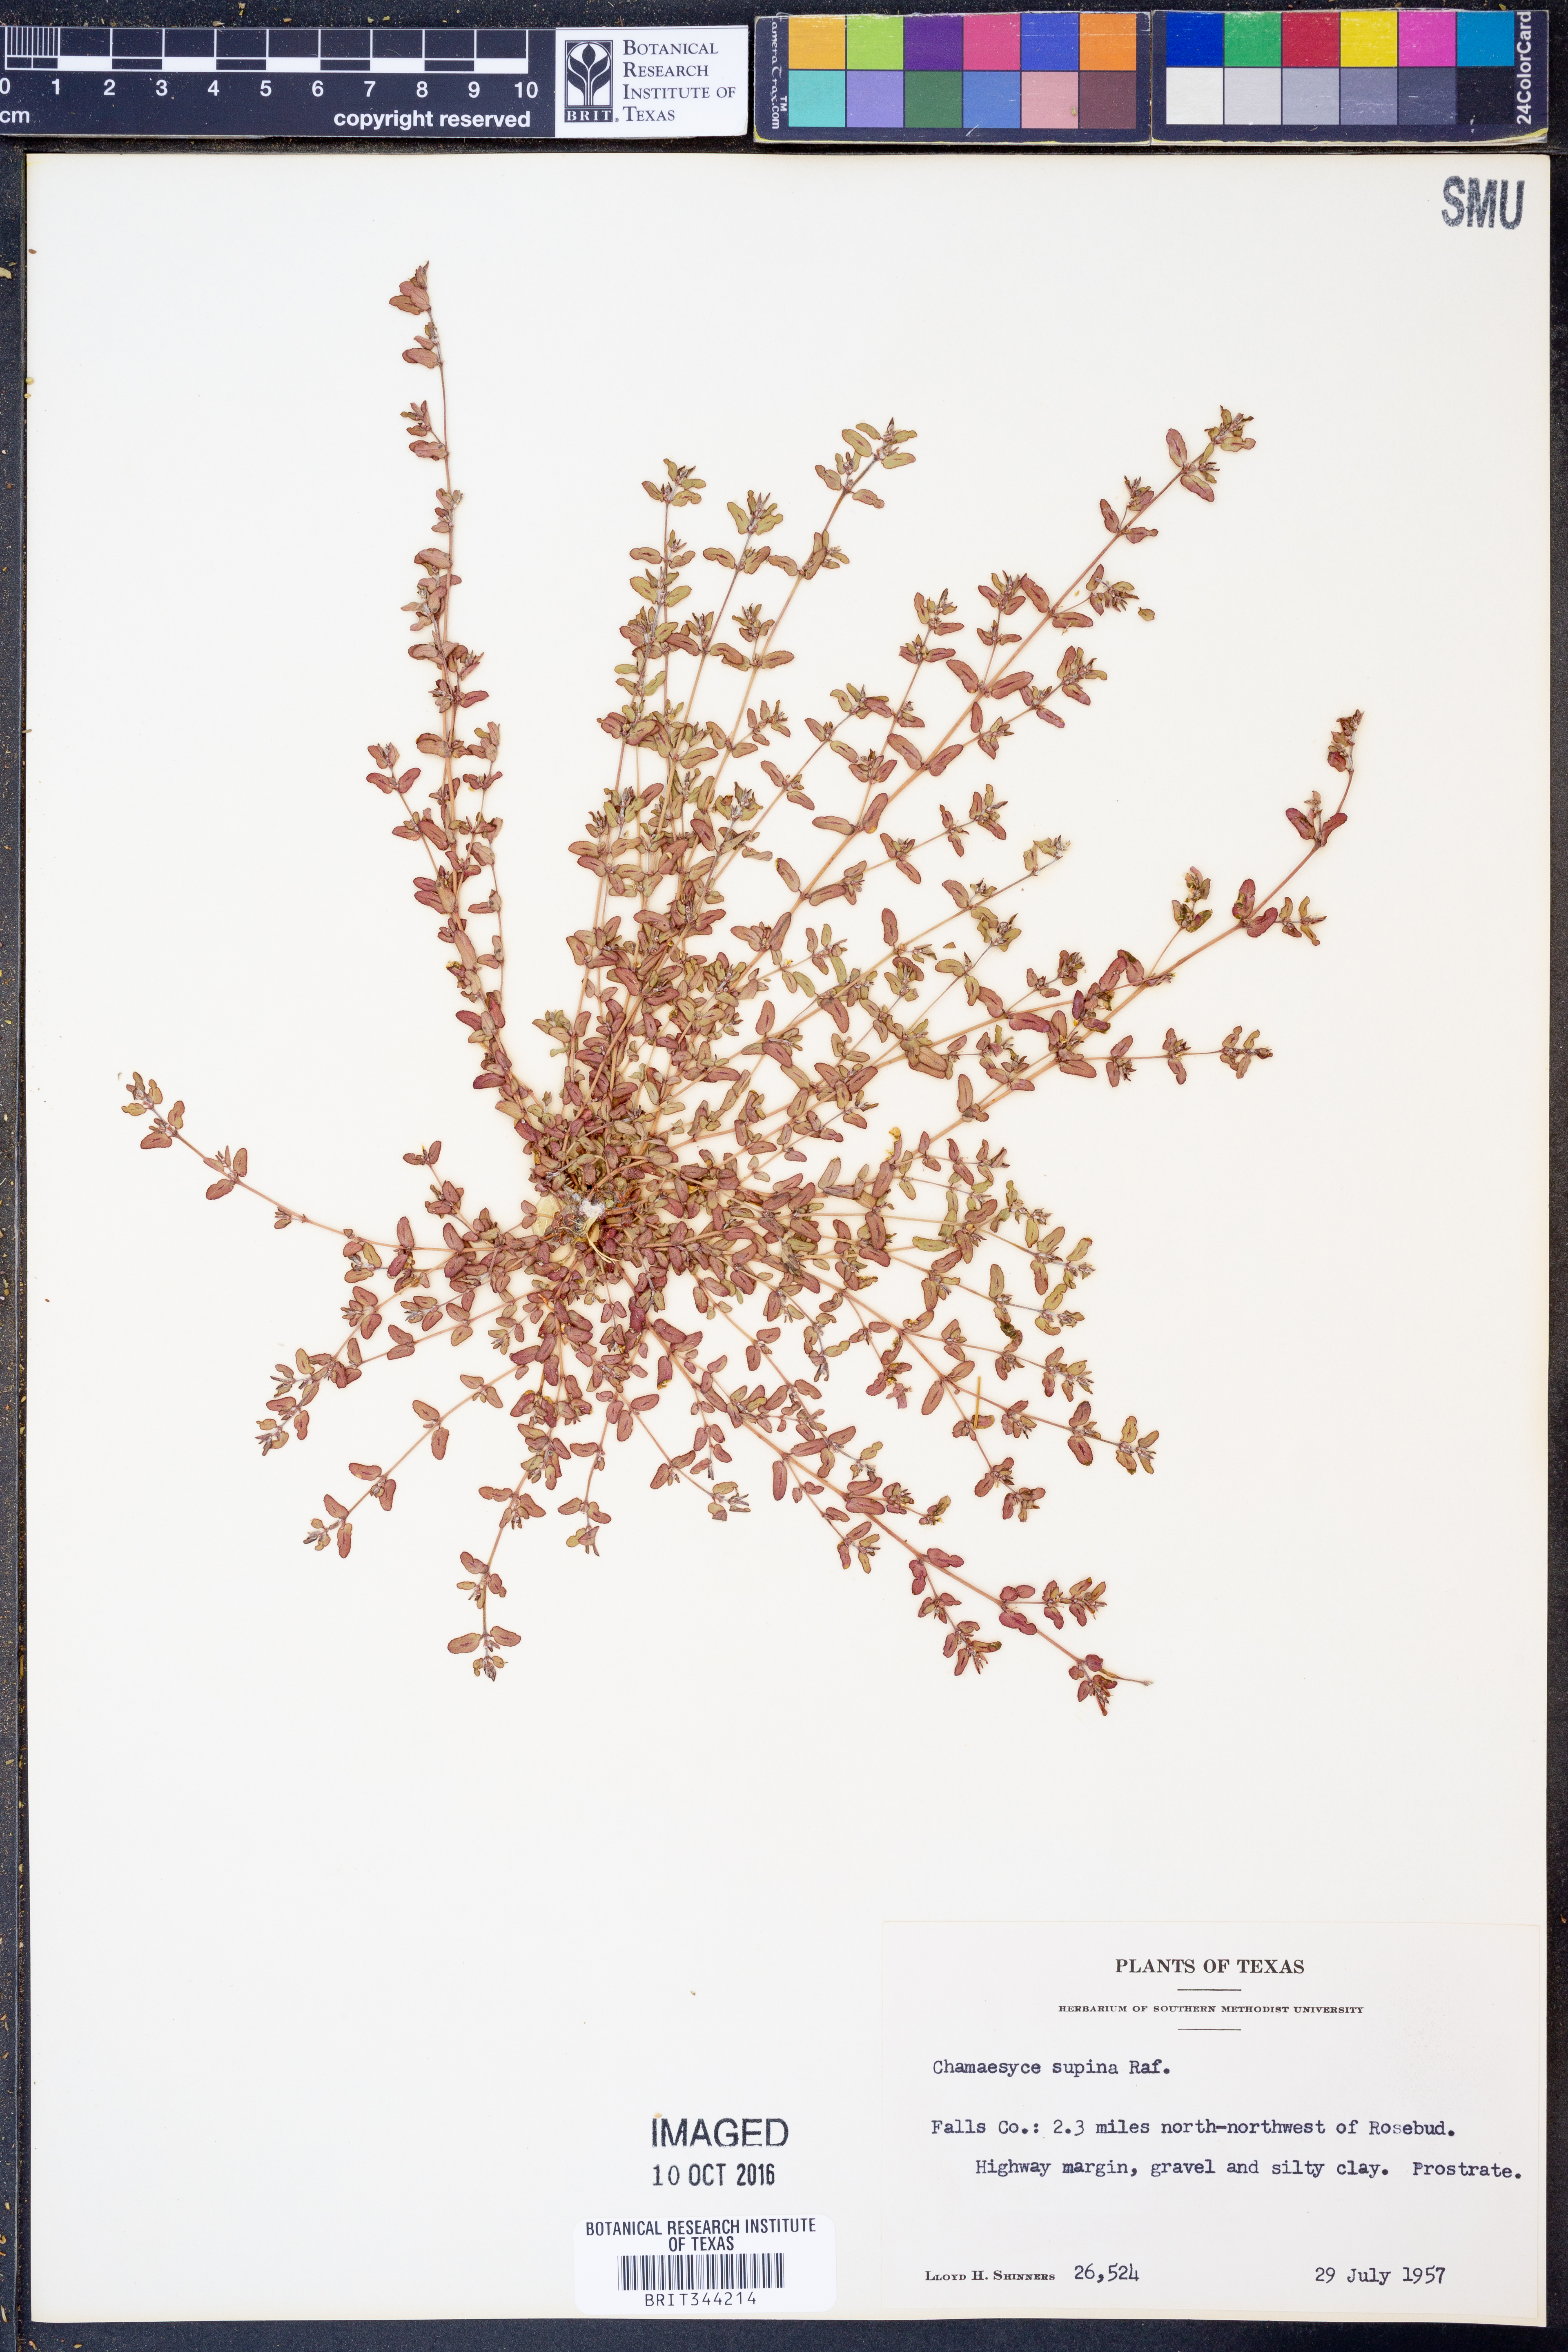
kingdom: Plantae
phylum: Tracheophyta
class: Magnoliopsida
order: Malpighiales
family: Euphorbiaceae
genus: Euphorbia
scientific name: Euphorbia maculata
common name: Spotted spurge
